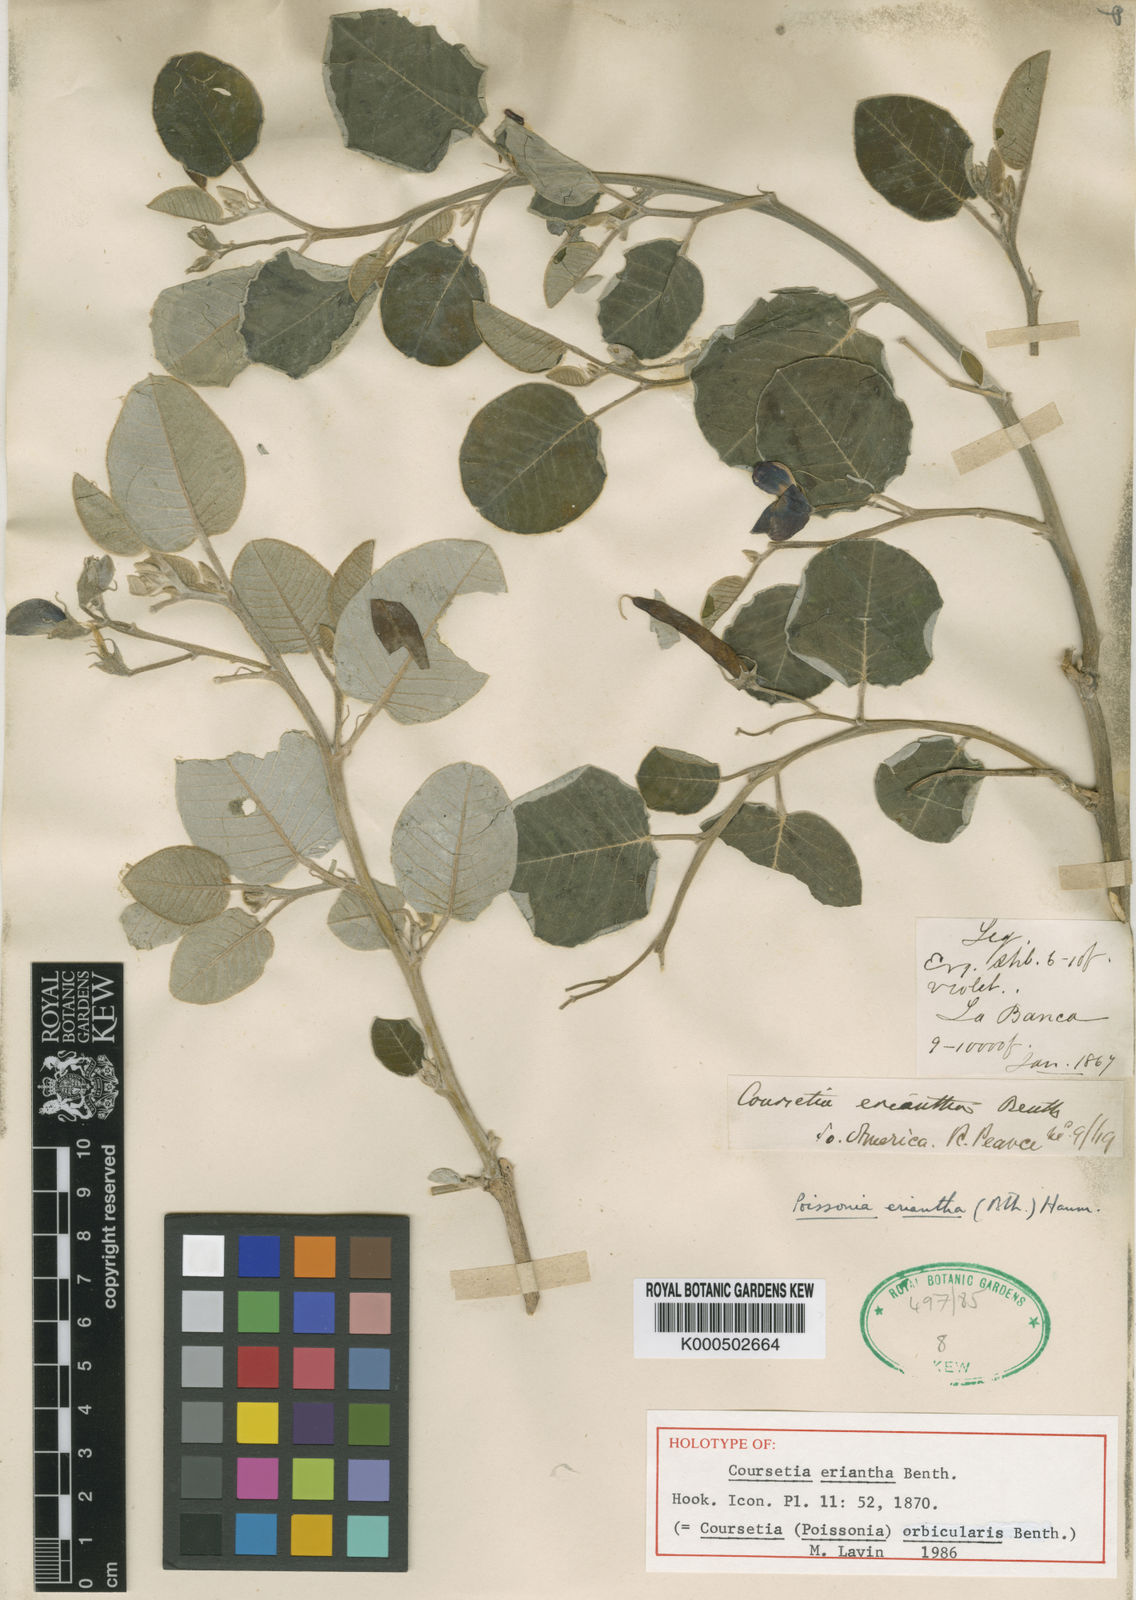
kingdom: Plantae
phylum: Tracheophyta
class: Magnoliopsida
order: Fabales
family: Fabaceae
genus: Poissonia
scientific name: Poissonia orbicularis
